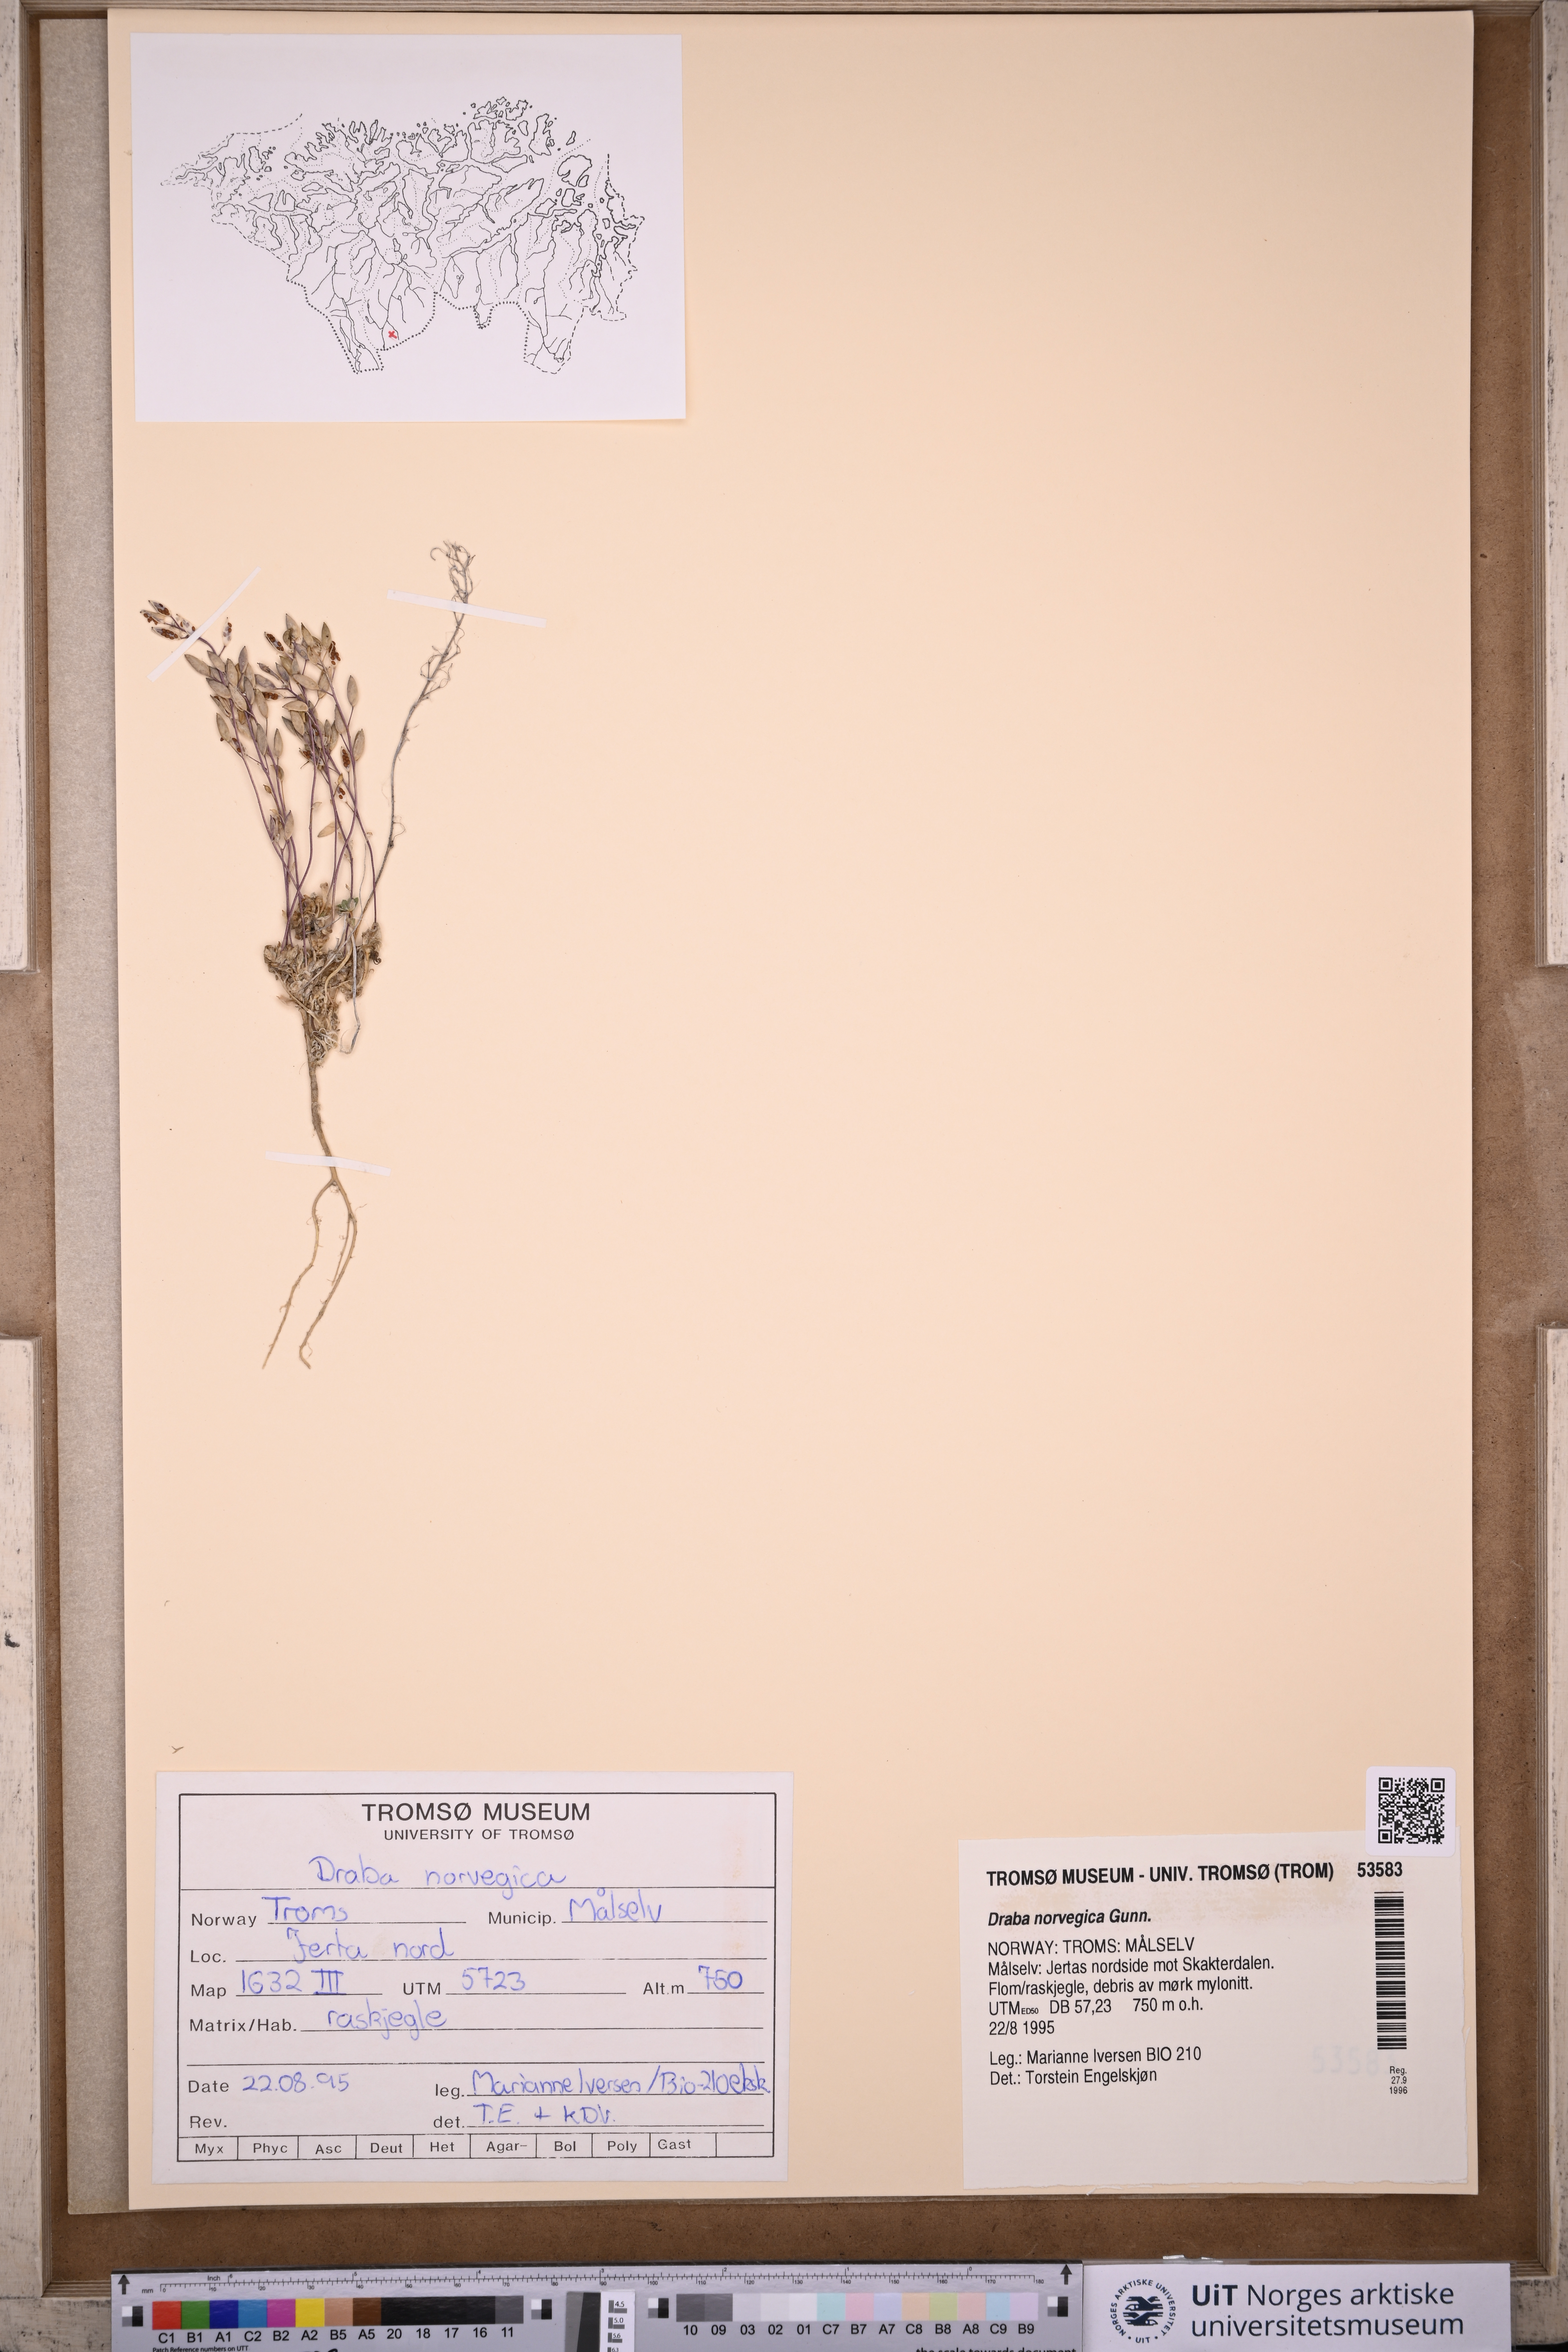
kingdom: Plantae
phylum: Tracheophyta
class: Magnoliopsida
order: Brassicales
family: Brassicaceae
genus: Draba
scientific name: Draba norvegica
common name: Rock whitlowgrass
